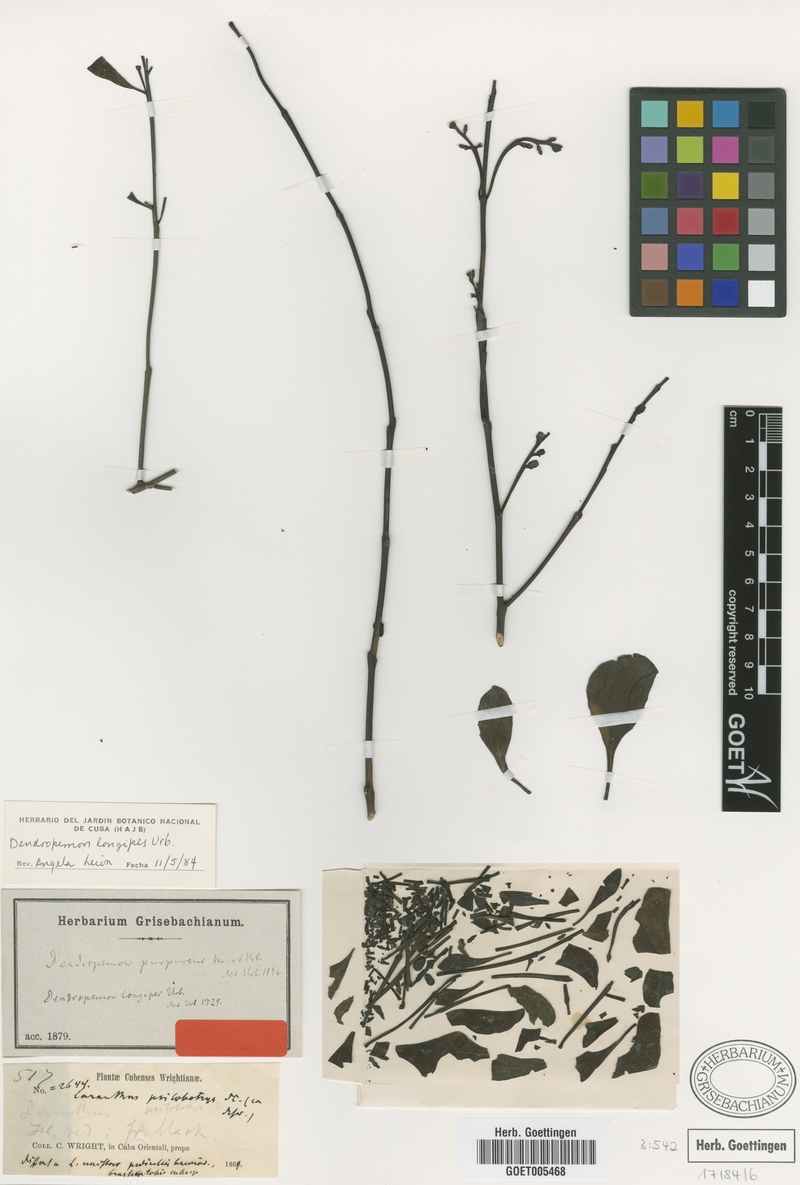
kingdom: Plantae
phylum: Tracheophyta
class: Magnoliopsida
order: Santalales
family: Loranthaceae
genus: Dendropemon
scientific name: Dendropemon longipes
